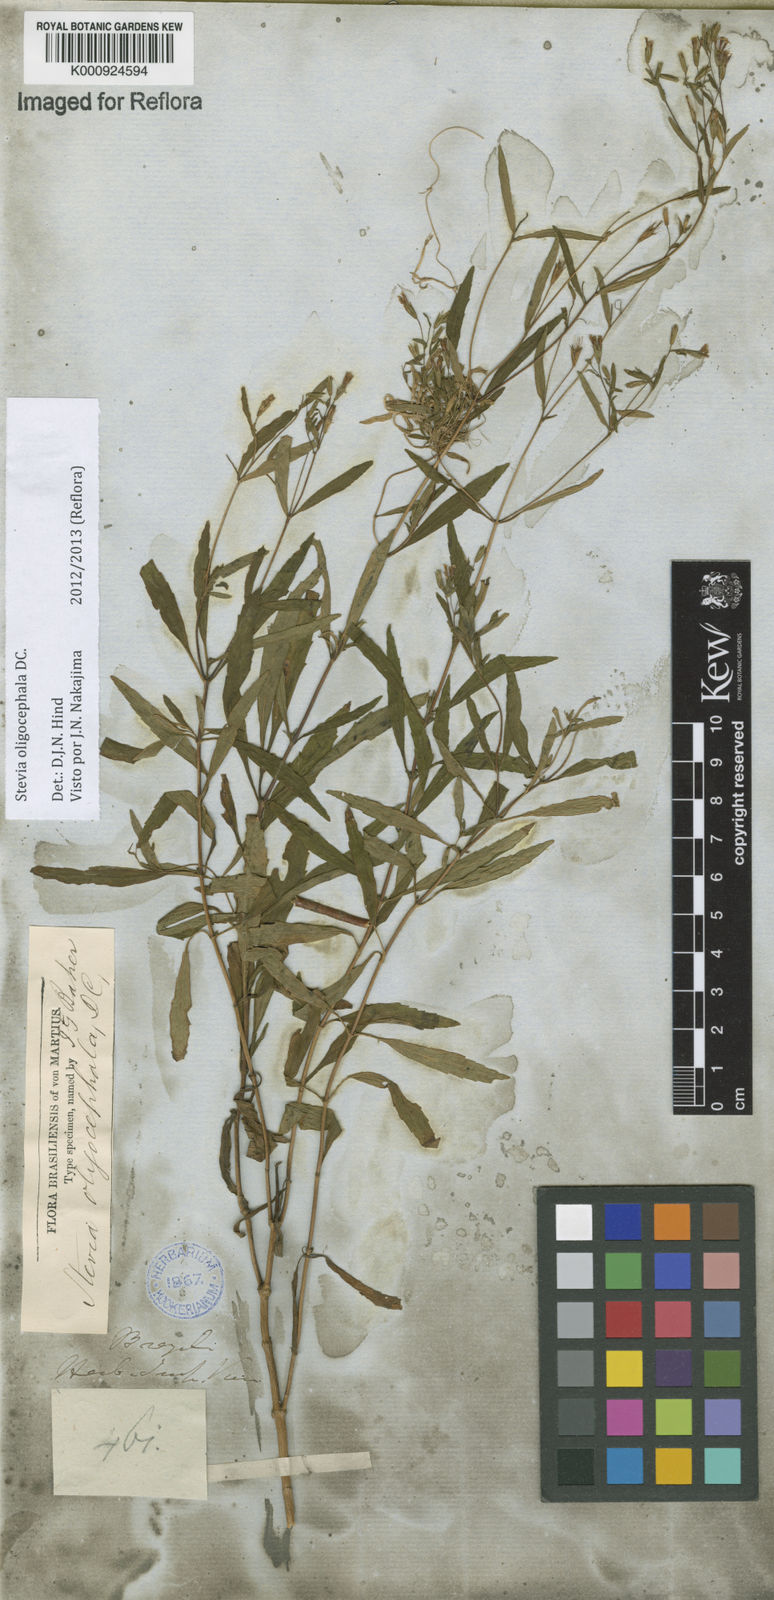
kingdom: Plantae
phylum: Tracheophyta
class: Magnoliopsida
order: Asterales
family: Asteraceae
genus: Stevia
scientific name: Stevia oligocephala
